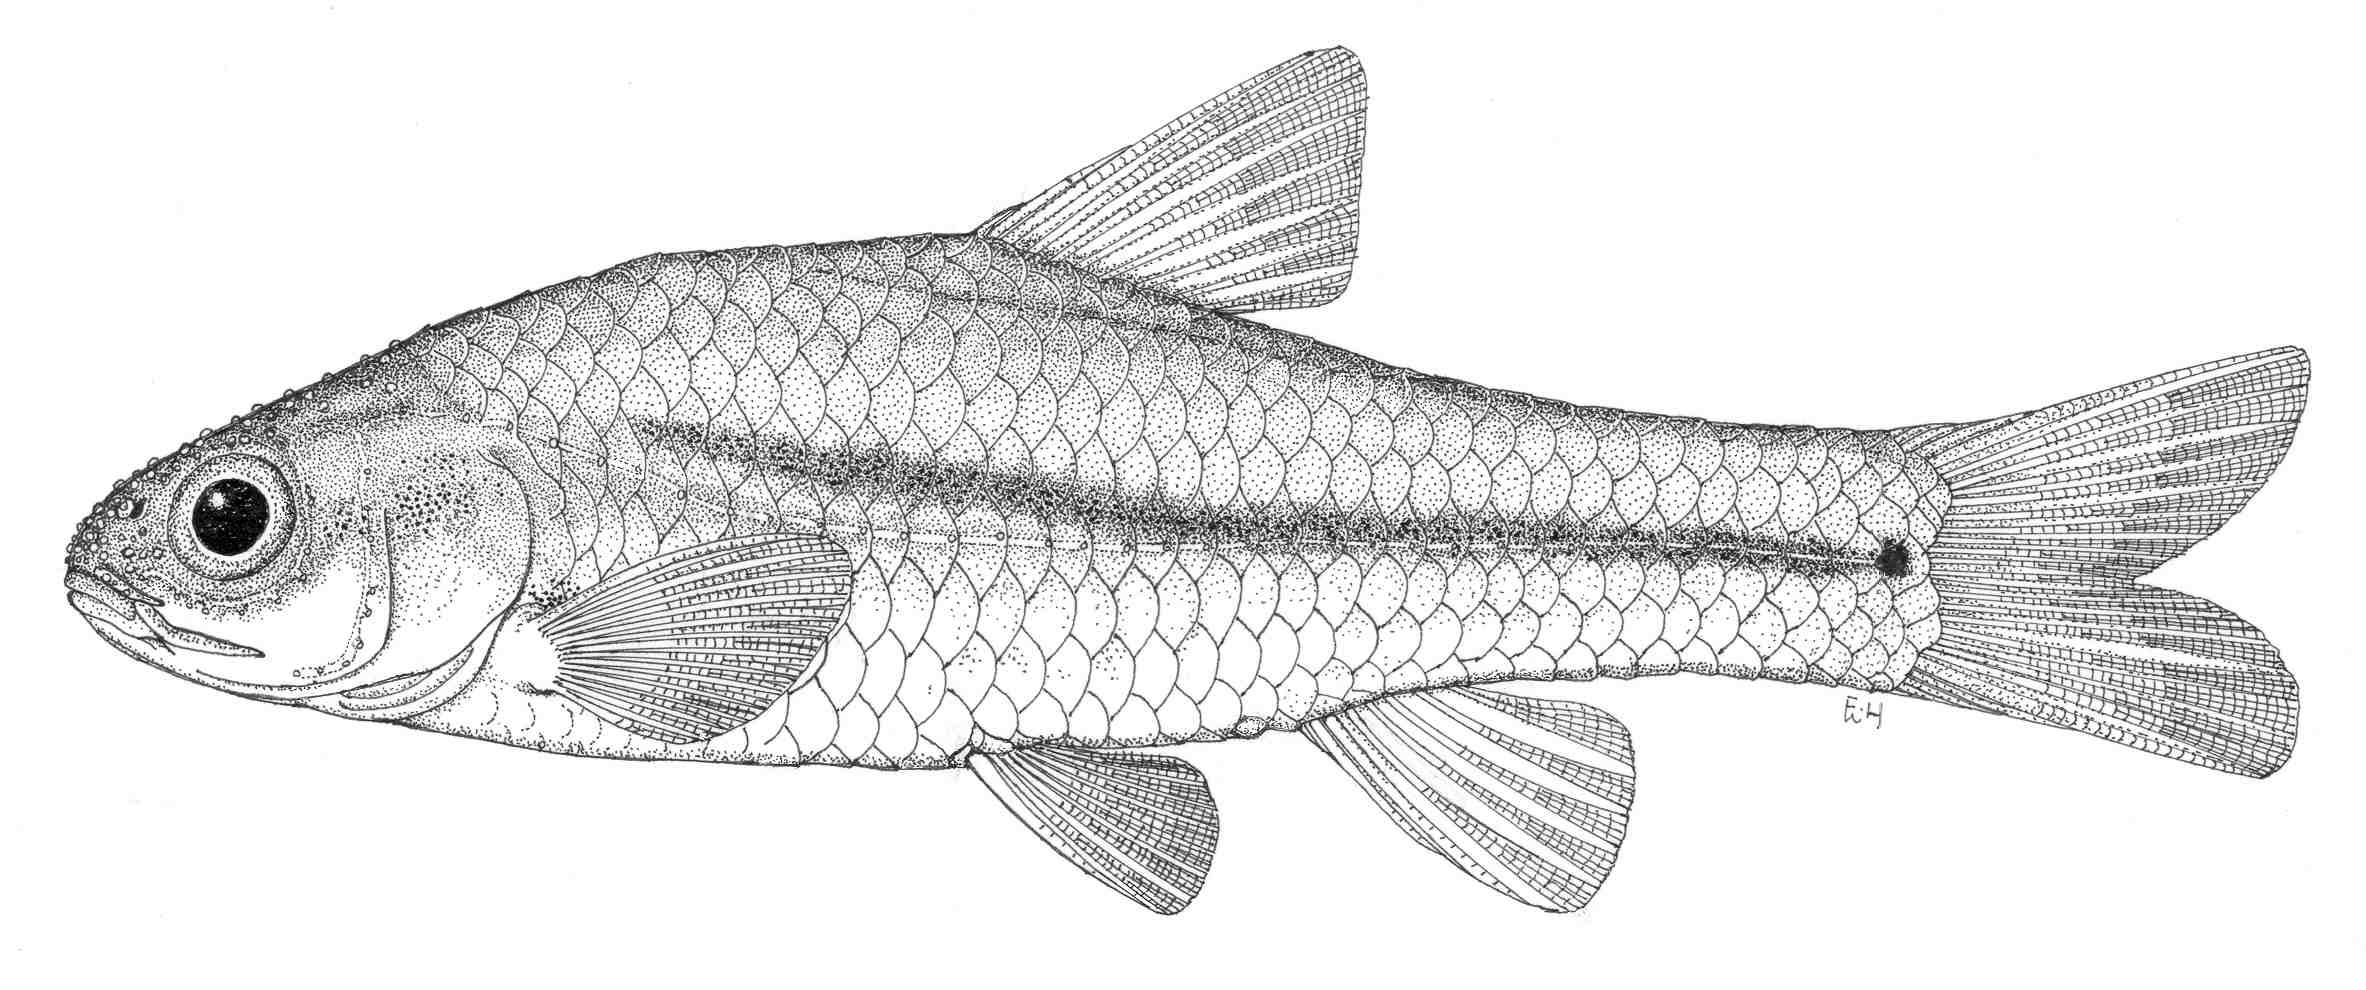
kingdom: Animalia
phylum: Chordata
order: Cypriniformes
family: Cyprinidae
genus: Enteromius
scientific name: Enteromius anoplus
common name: Chubbyhead barb
